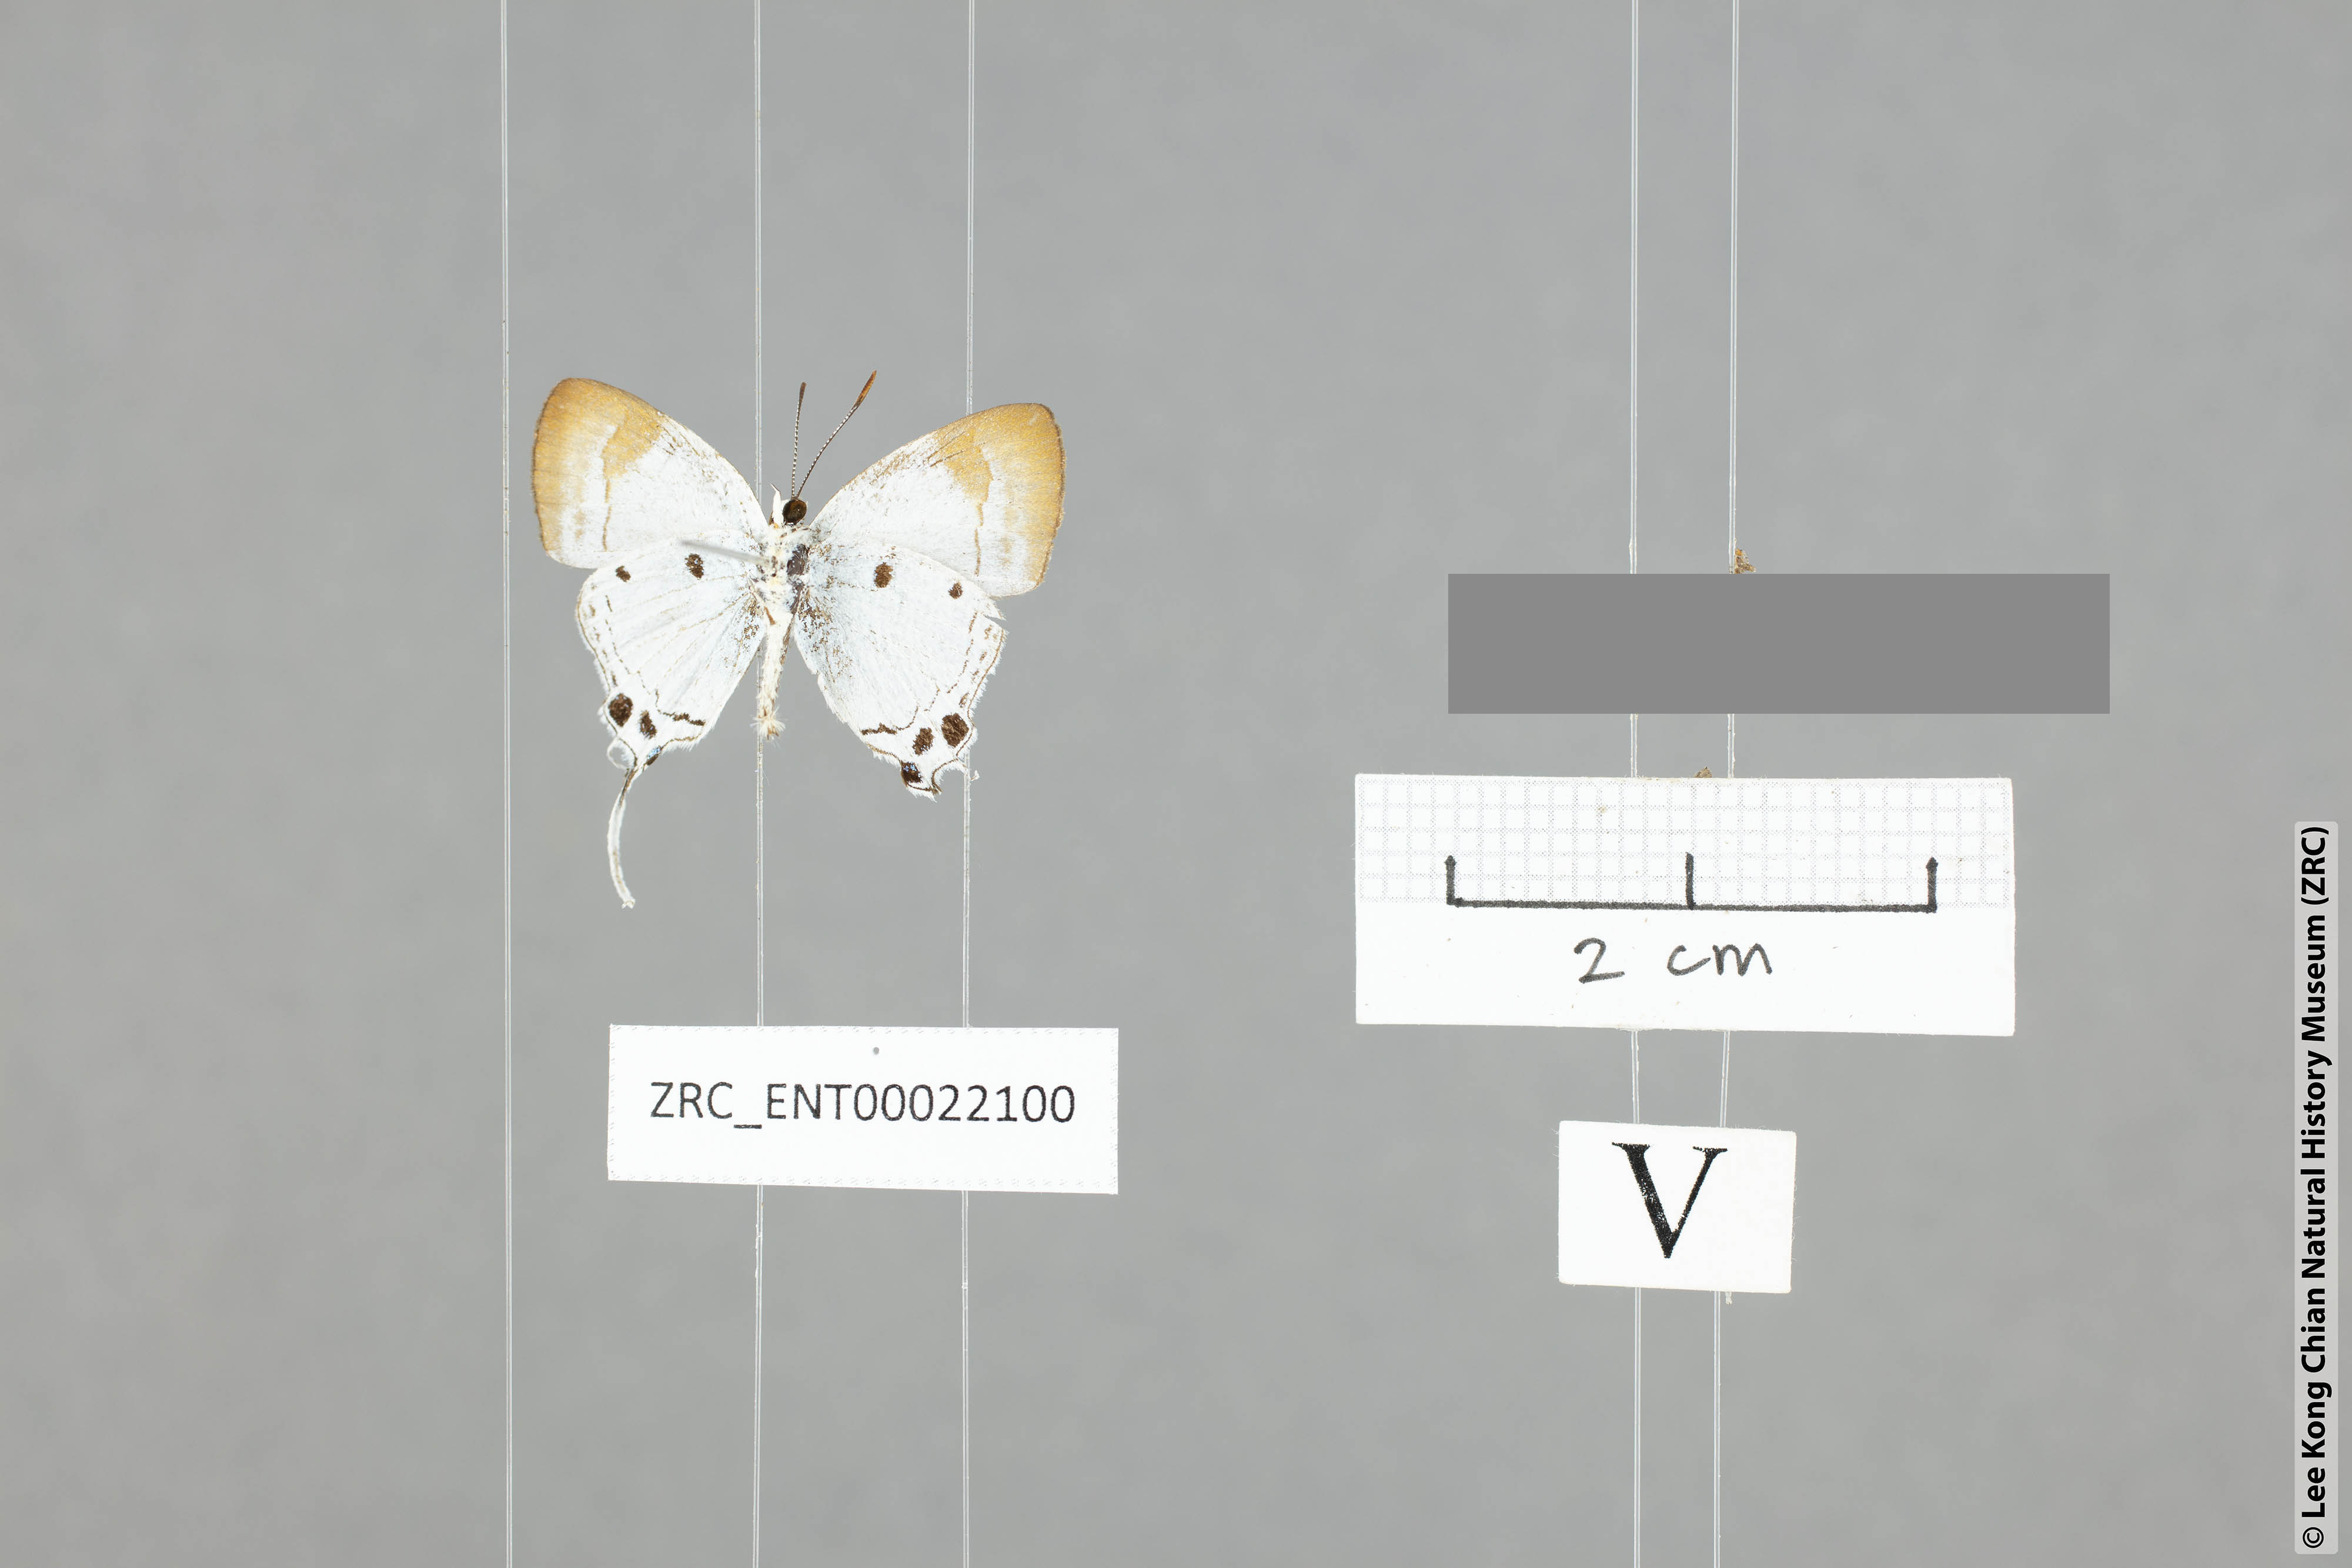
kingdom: Animalia
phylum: Arthropoda
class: Insecta
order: Lepidoptera
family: Lycaenidae
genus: Suasa
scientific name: Suasa lisides
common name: Red imperial
